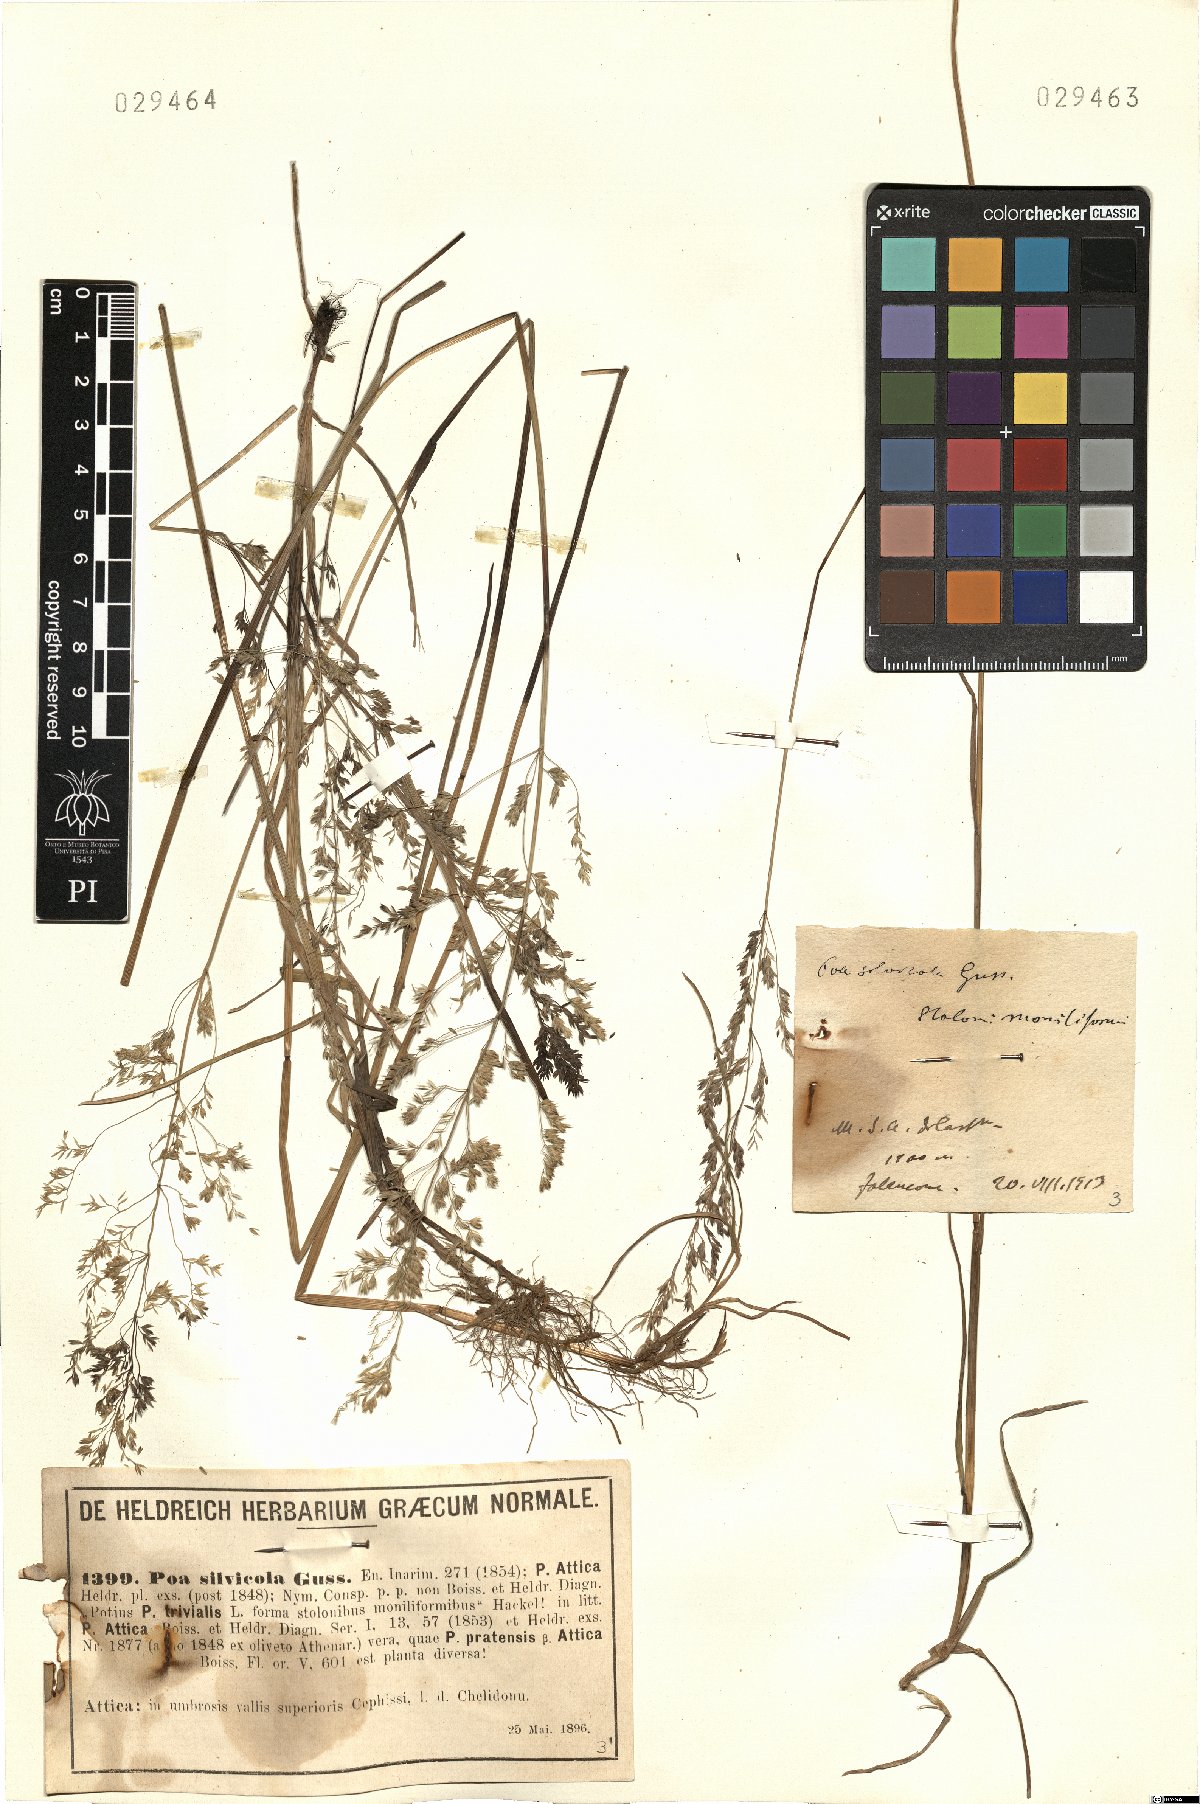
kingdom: Plantae
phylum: Tracheophyta
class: Liliopsida
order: Poales
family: Poaceae
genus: Poa
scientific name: Poa trivialis
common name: Rough bluegrass
